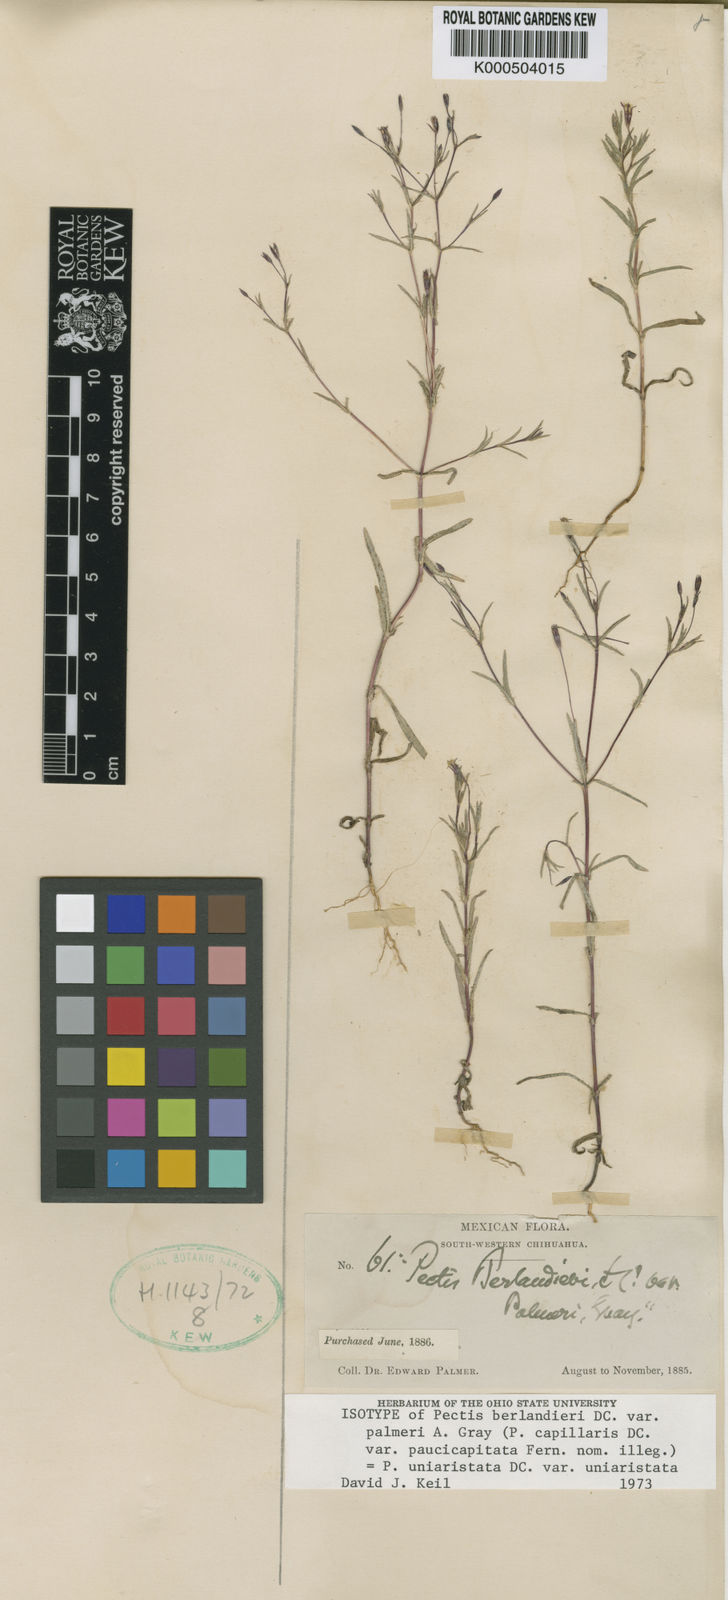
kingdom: Plantae
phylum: Tracheophyta
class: Magnoliopsida
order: Asterales
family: Asteraceae
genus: Pectis
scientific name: Pectis berlandieri
